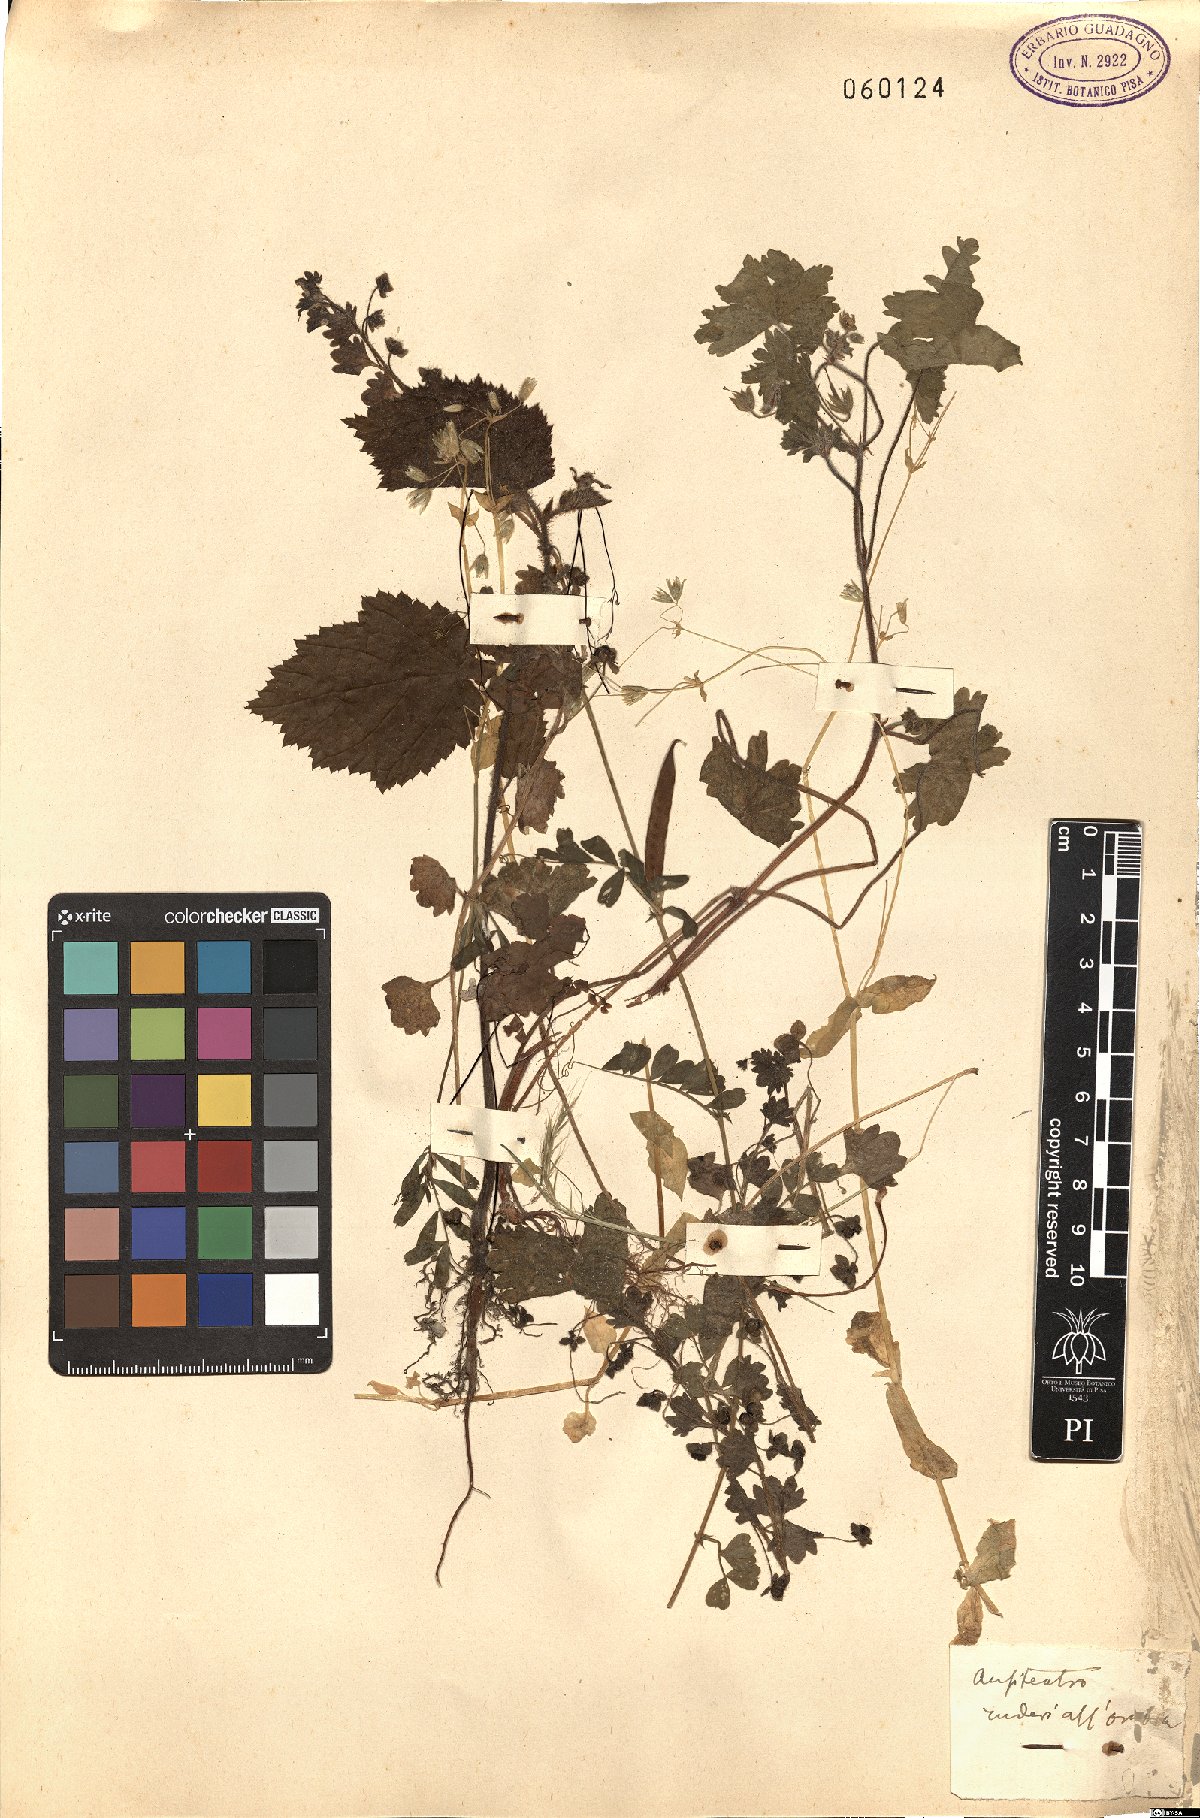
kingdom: Plantae
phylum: Tracheophyta
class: Magnoliopsida
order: Caryophyllales
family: Caryophyllaceae
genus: Stellaria
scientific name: Stellaria media
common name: Common chickweed
